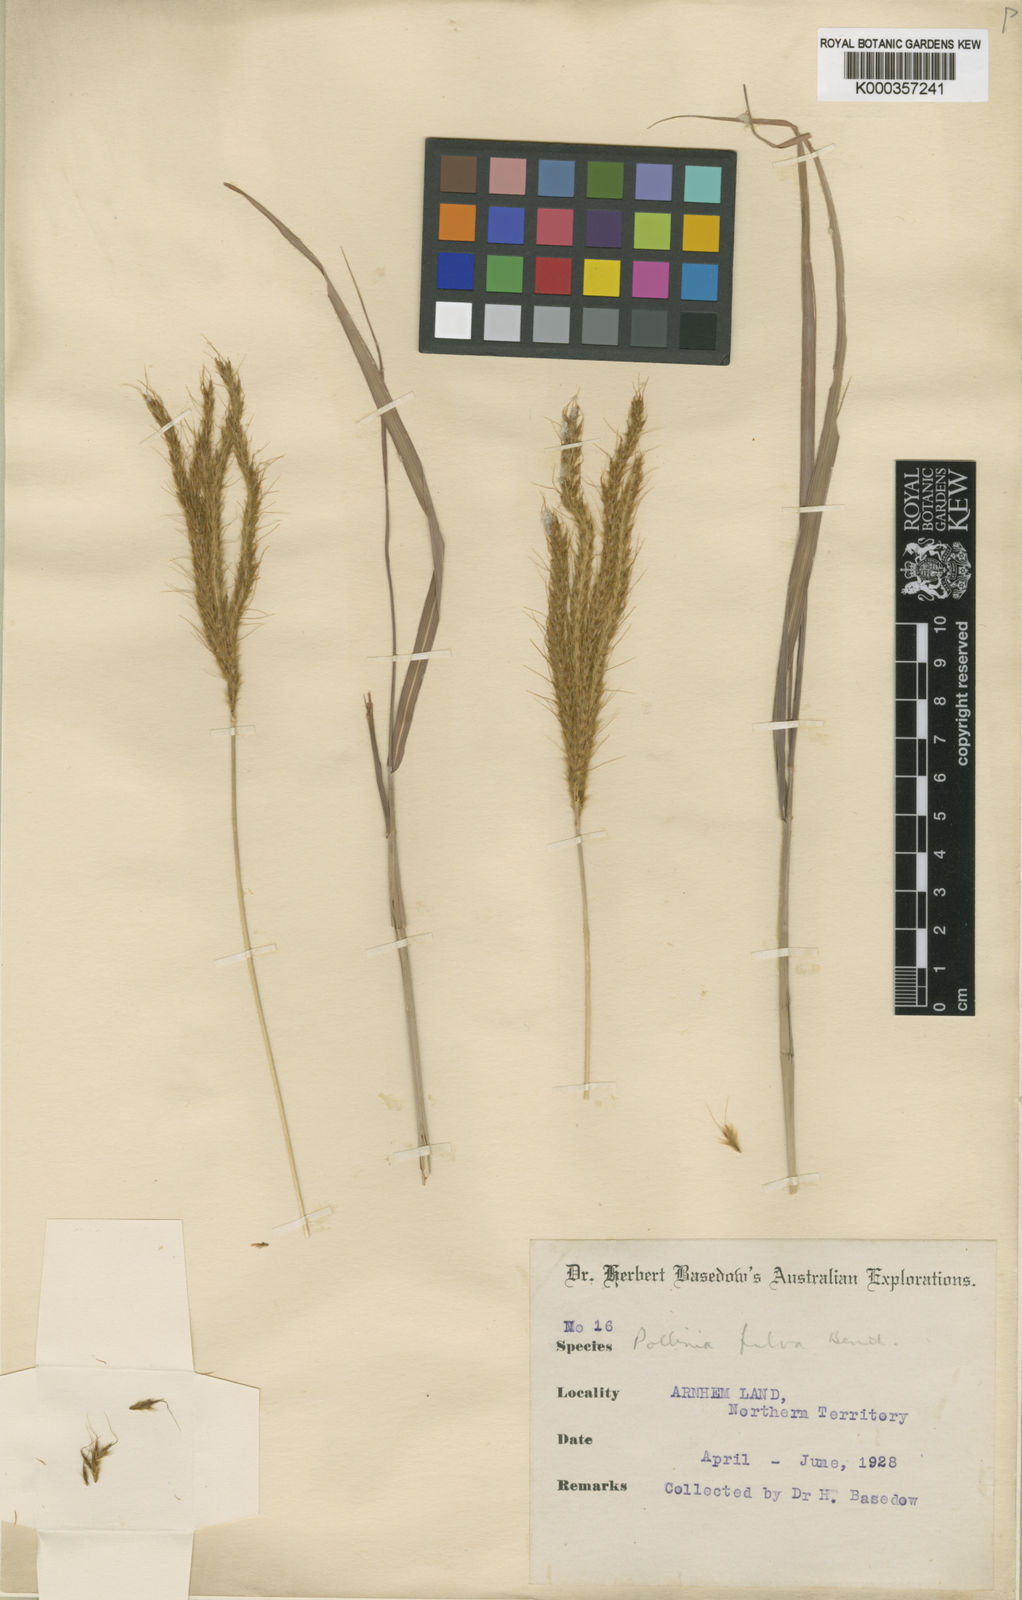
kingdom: Plantae
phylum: Tracheophyta
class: Liliopsida
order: Poales
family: Poaceae
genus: Eulalia
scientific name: Eulalia aurea
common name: Silky browntop
